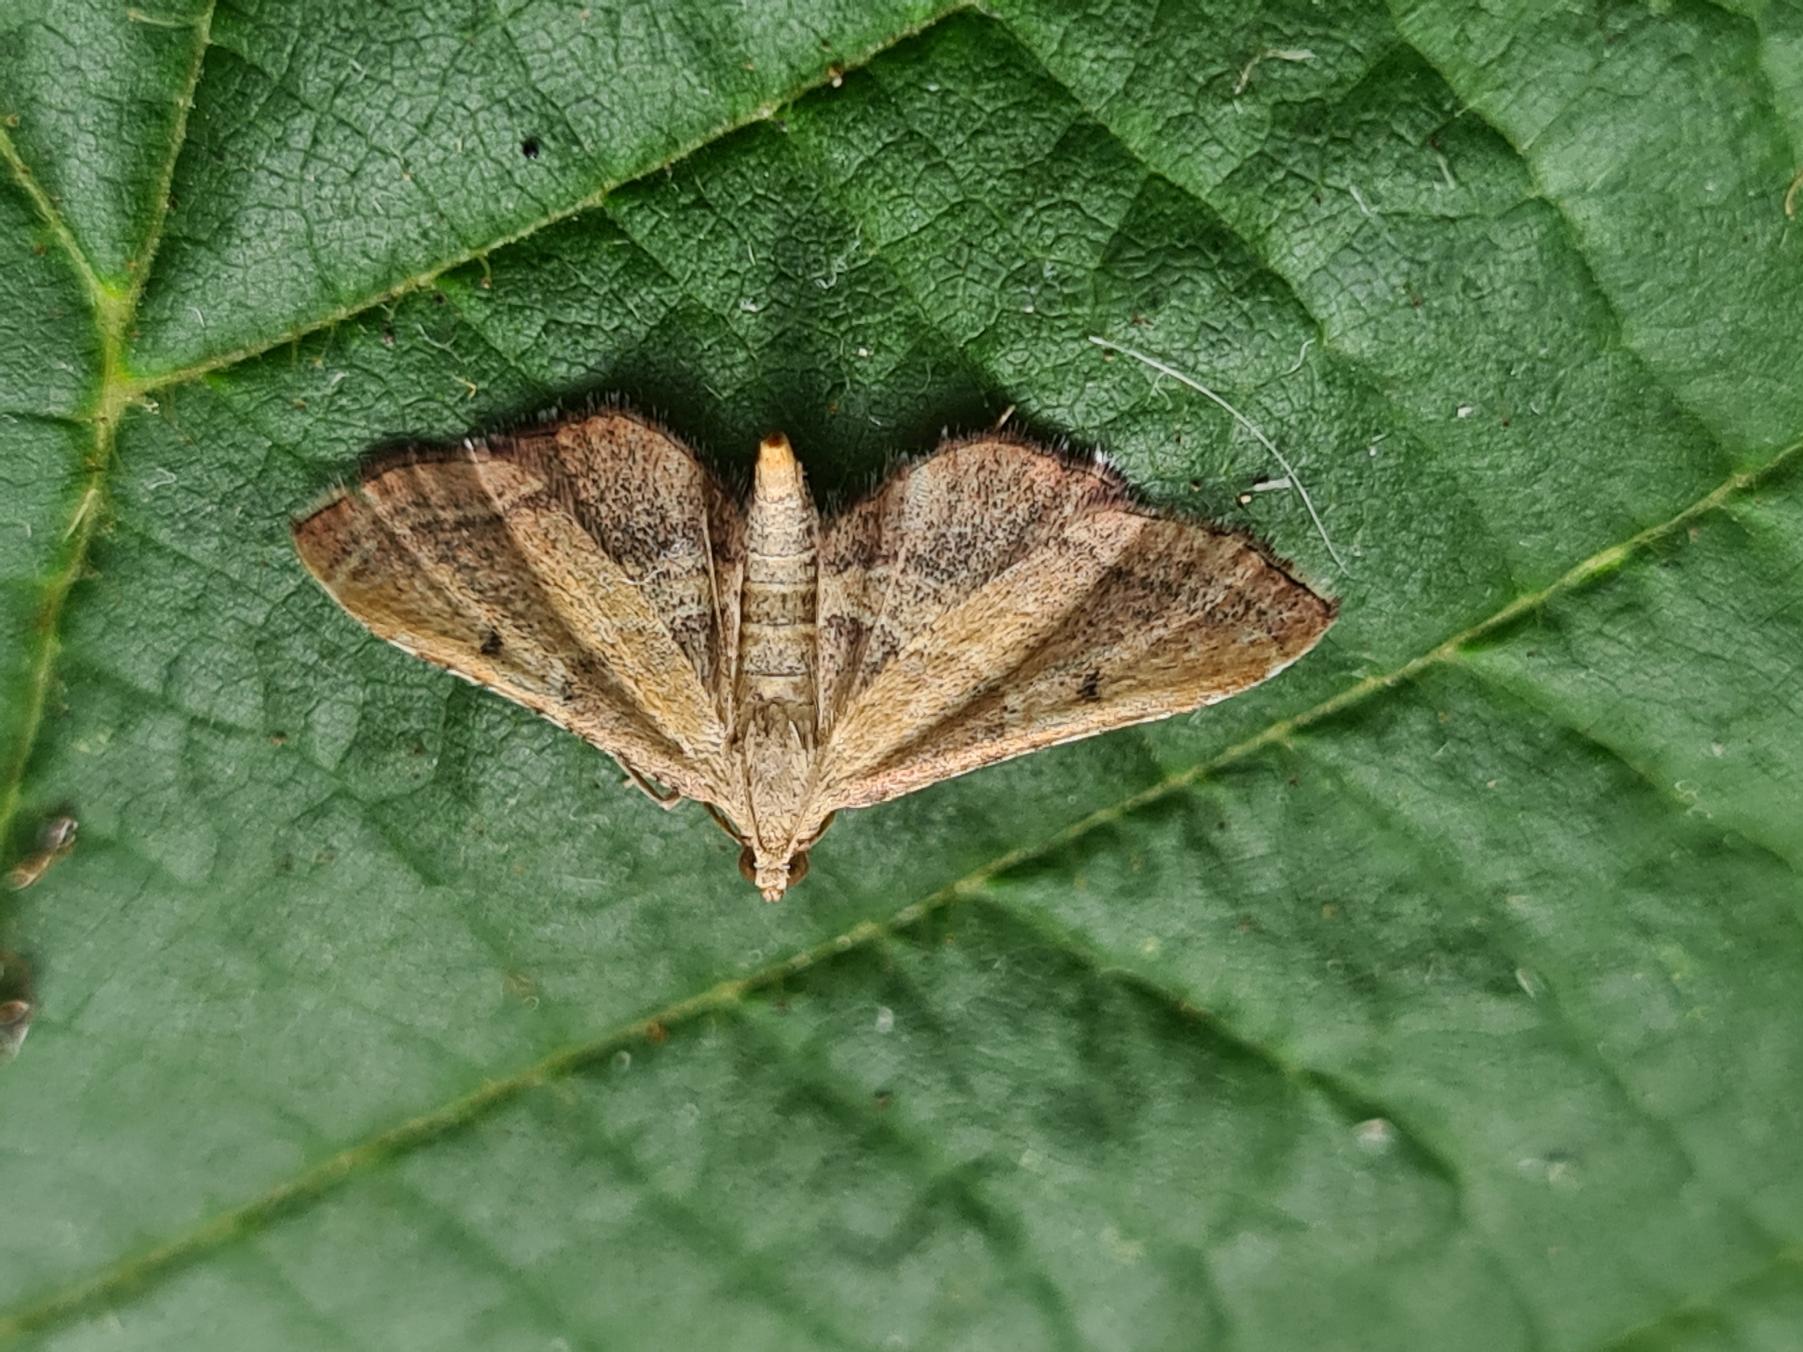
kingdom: Animalia
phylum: Arthropoda
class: Insecta
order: Lepidoptera
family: Pyralidae
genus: Endotricha
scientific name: Endotricha flammealis
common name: Løvkrathalvmøl
